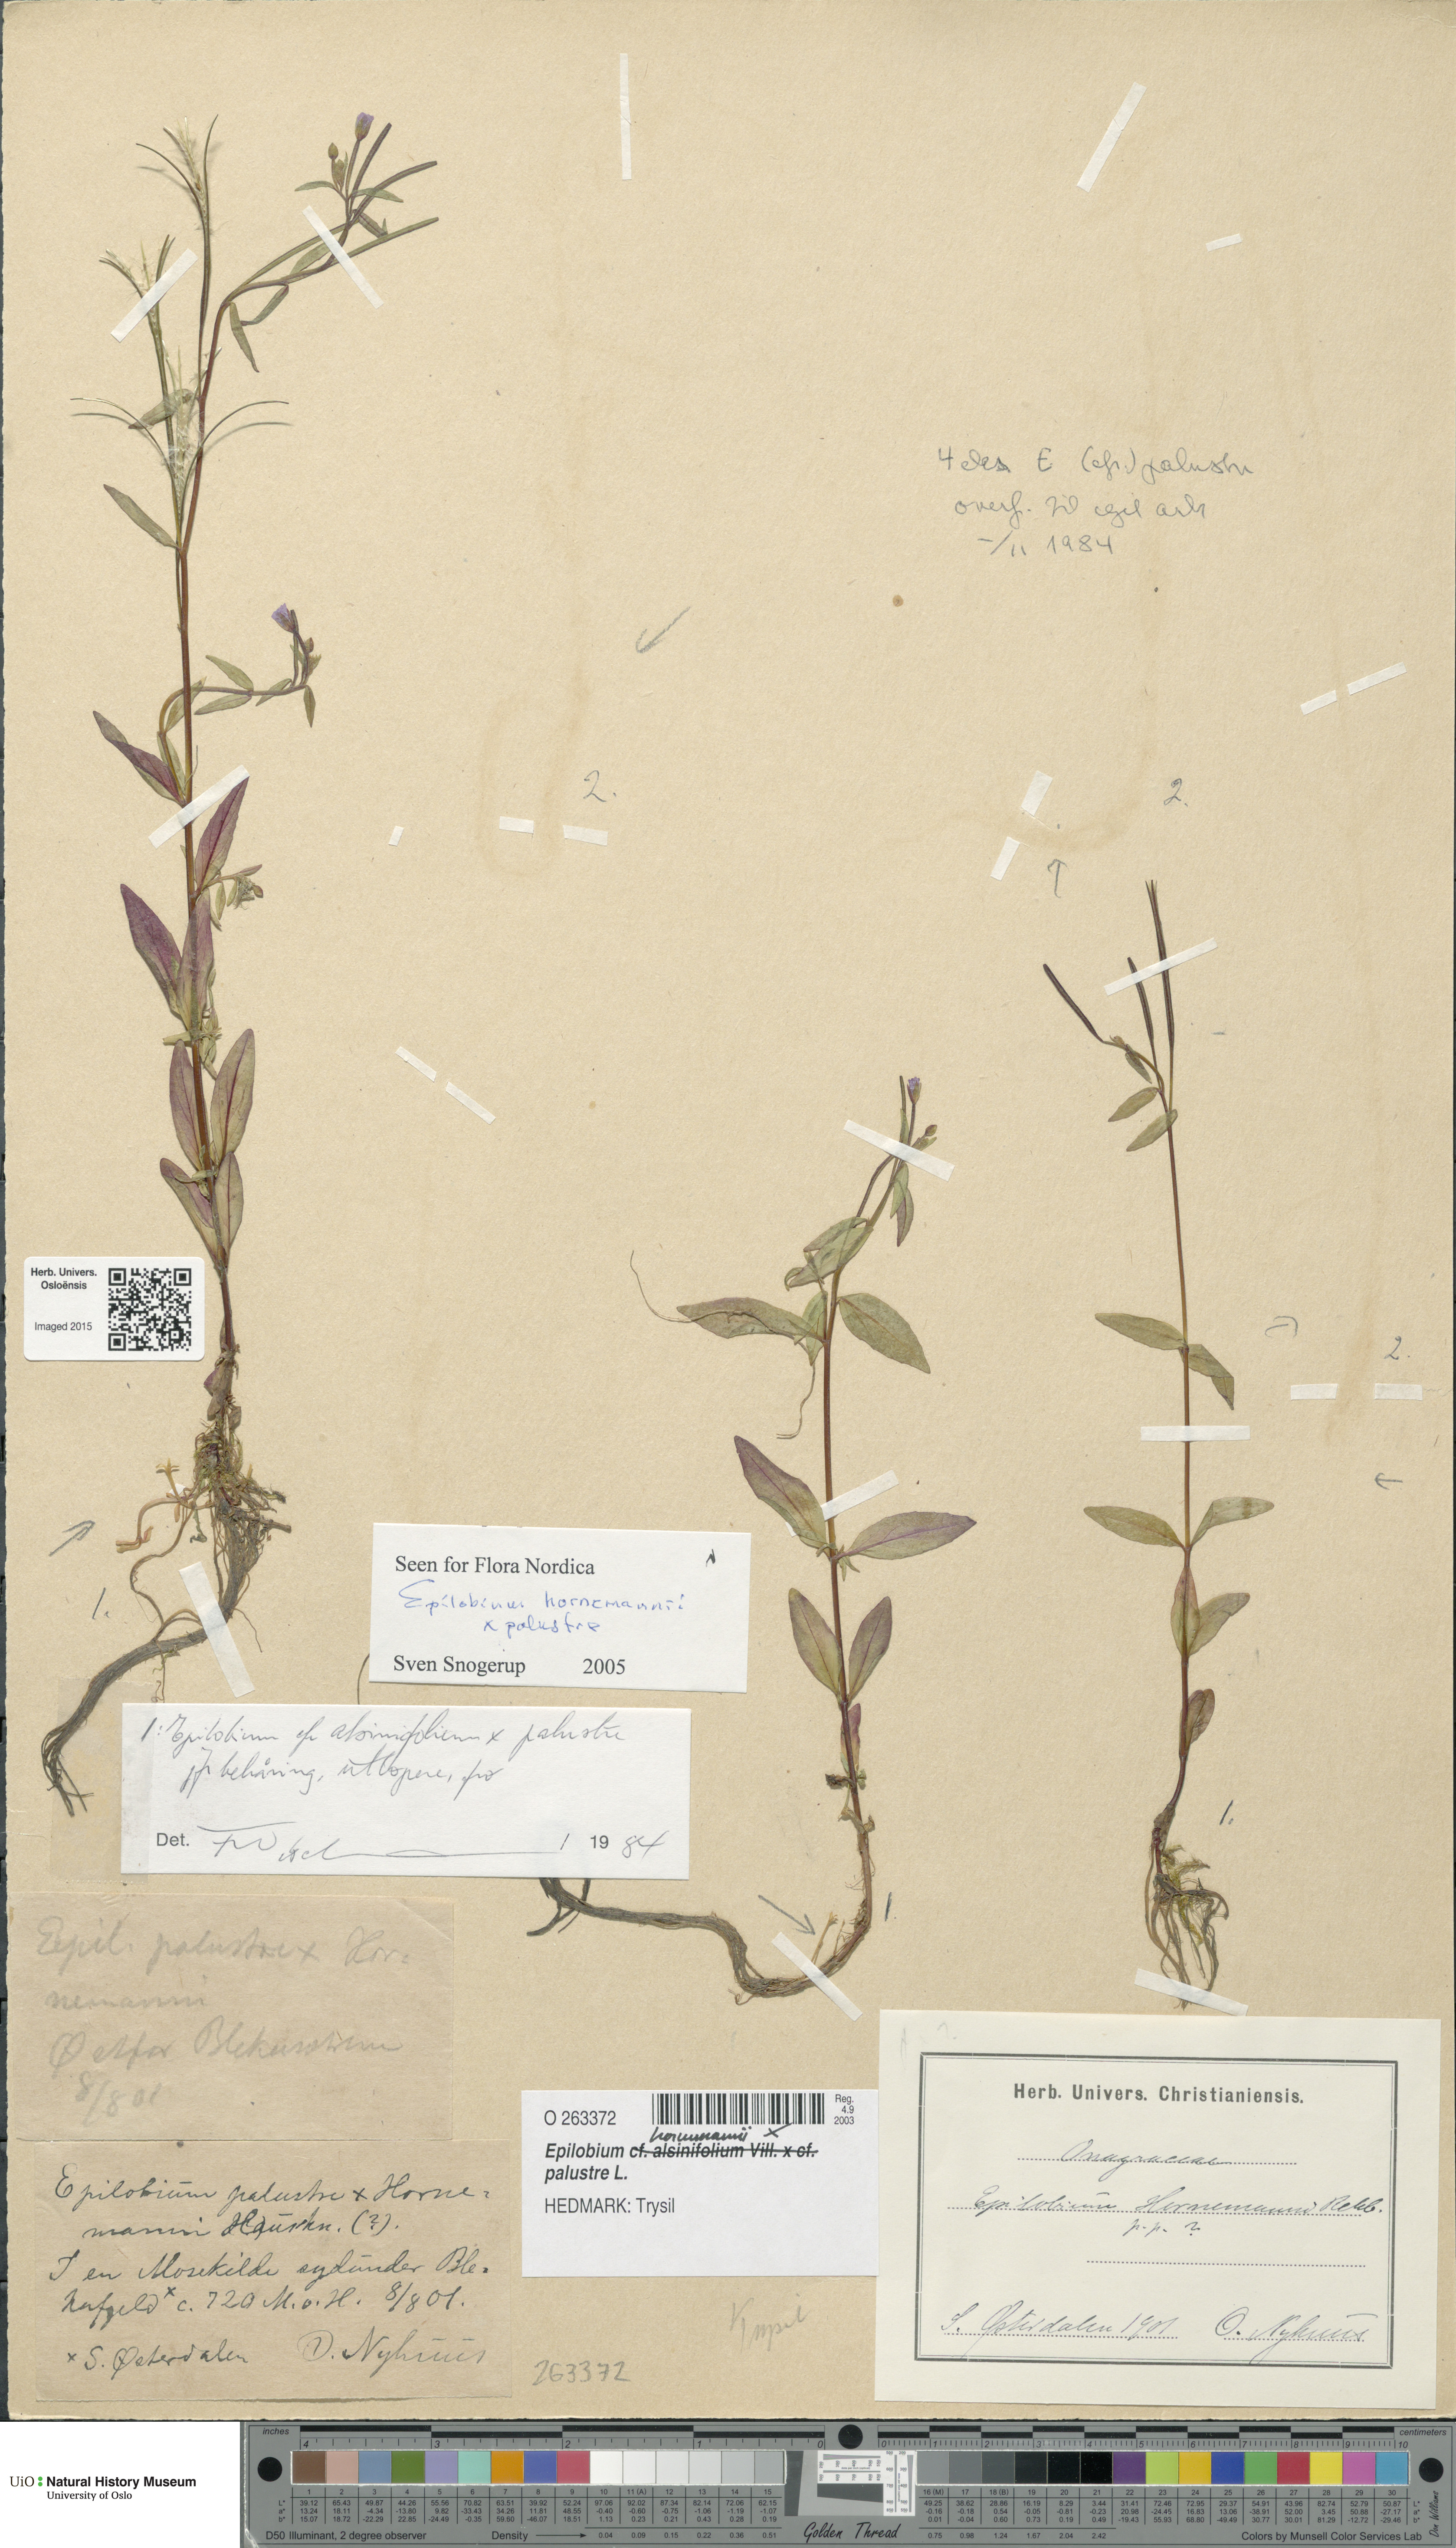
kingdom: Plantae
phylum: Tracheophyta
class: Magnoliopsida
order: Myrtales
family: Onagraceae
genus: Epilobium
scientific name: Epilobium
